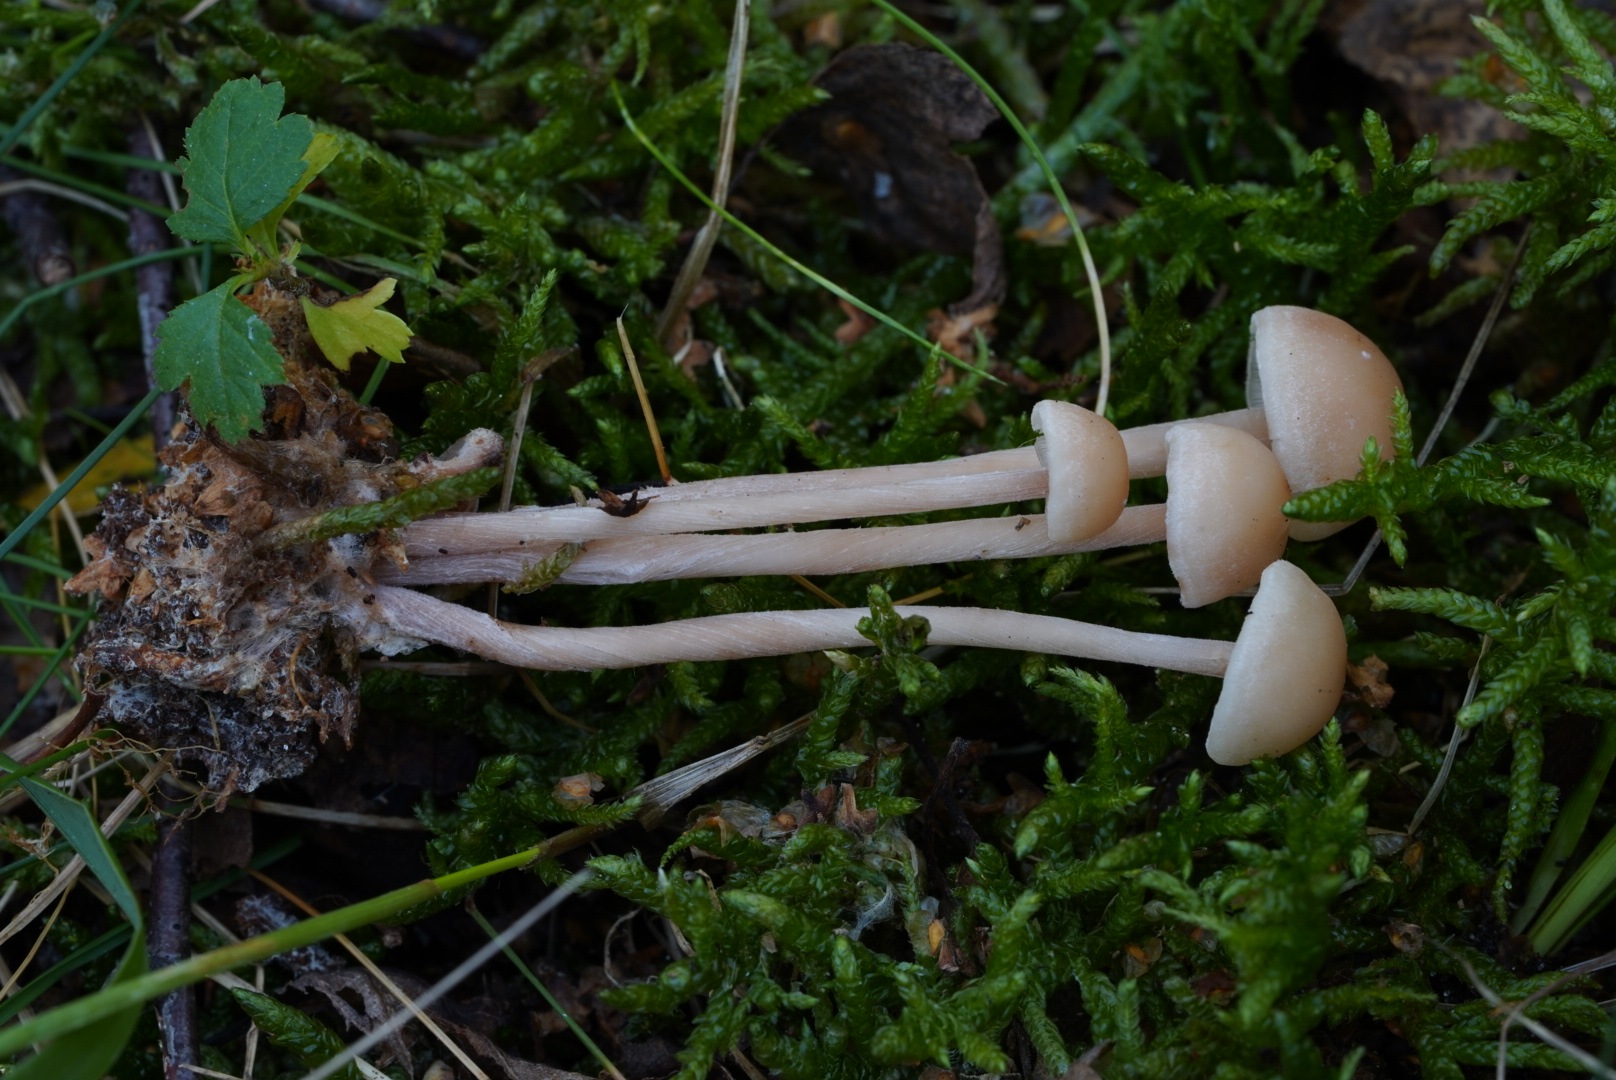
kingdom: Fungi
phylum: Basidiomycota
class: Agaricomycetes
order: Agaricales
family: Omphalotaceae
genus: Collybiopsis
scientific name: Collybiopsis confluens
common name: knippe-fladhat
